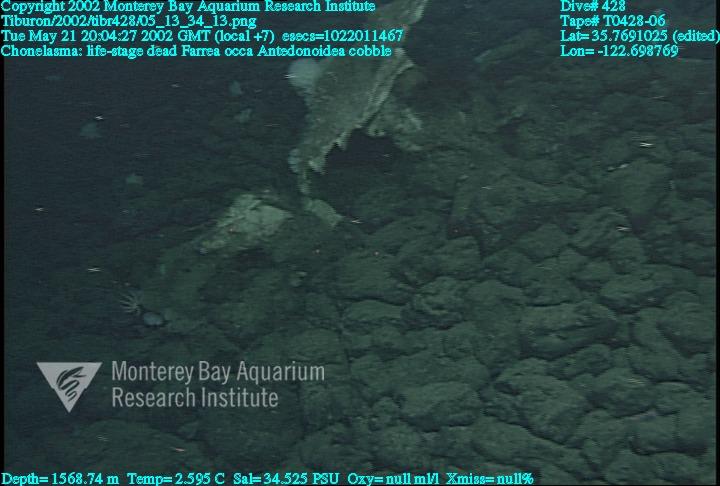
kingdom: Animalia
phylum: Porifera
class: Hexactinellida
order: Sceptrulophora
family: Farreidae
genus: Farrea
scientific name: Farrea occa
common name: Reversed glass sponge
